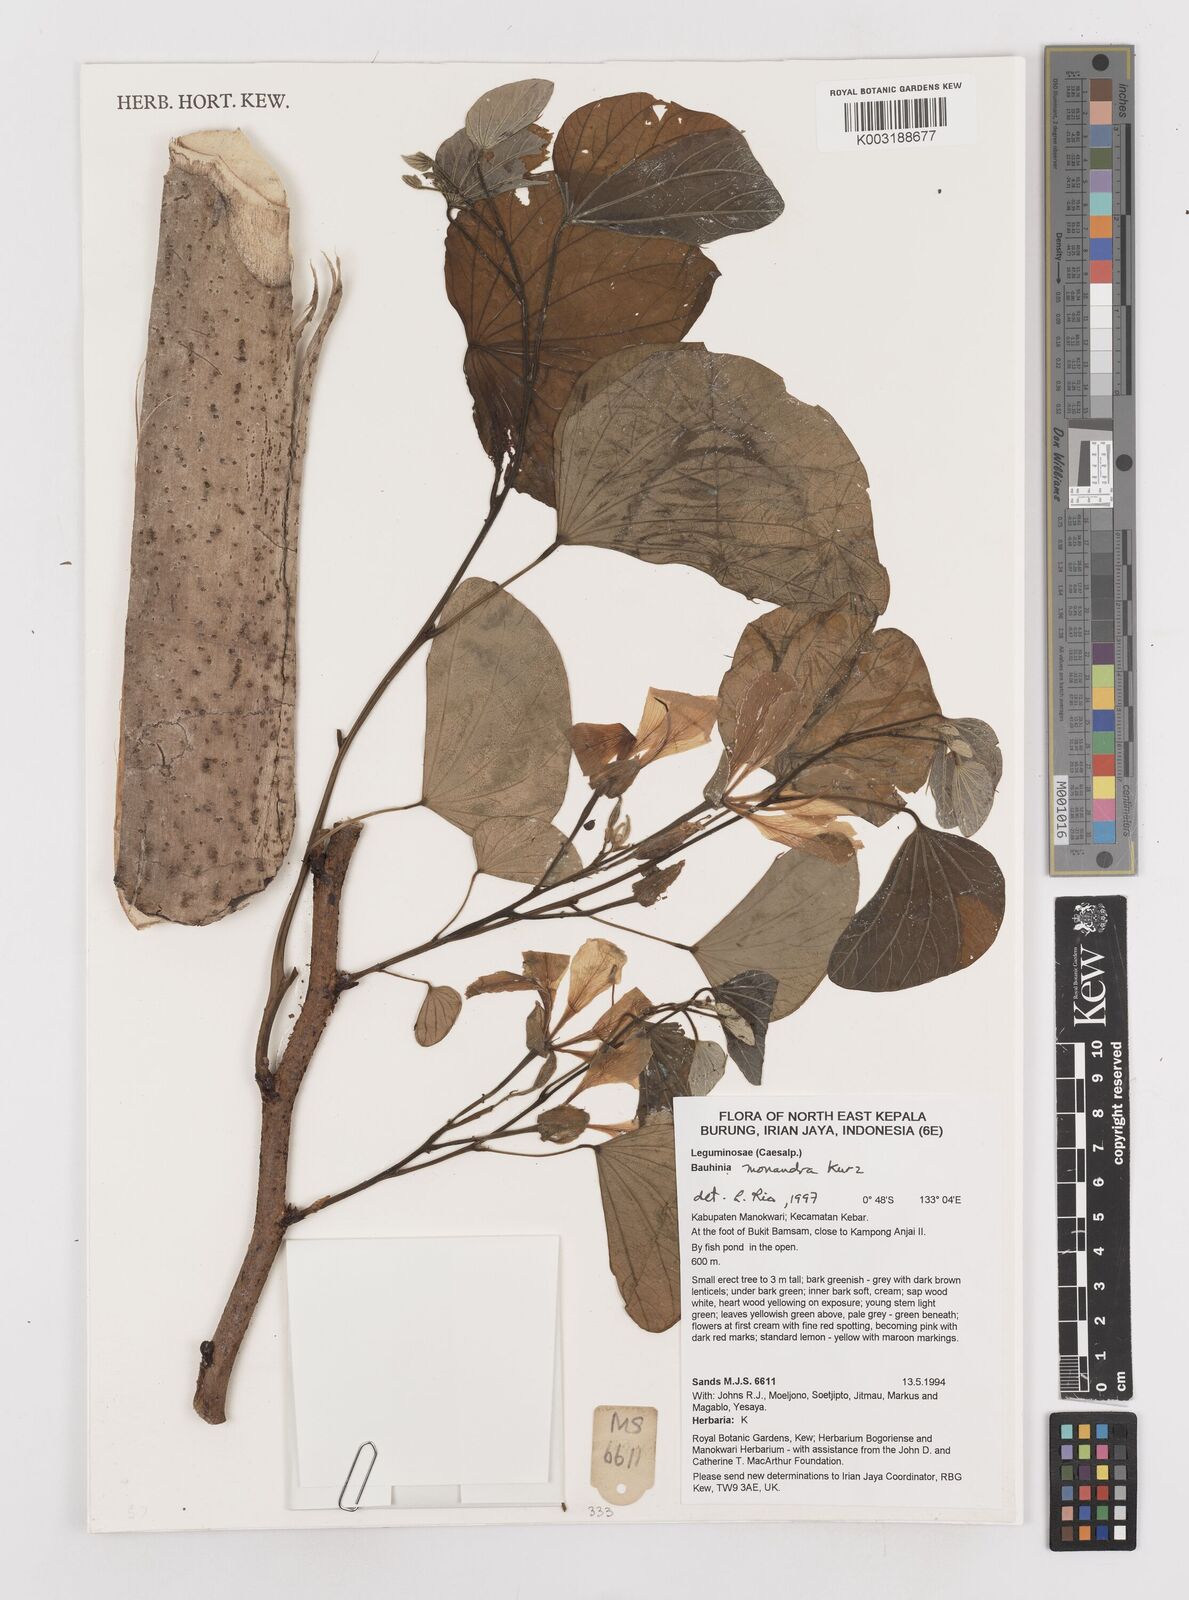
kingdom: Plantae
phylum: Tracheophyta
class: Magnoliopsida
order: Fabales
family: Fabaceae
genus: Bauhinia
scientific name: Bauhinia monandra
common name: Napoleon's plume
